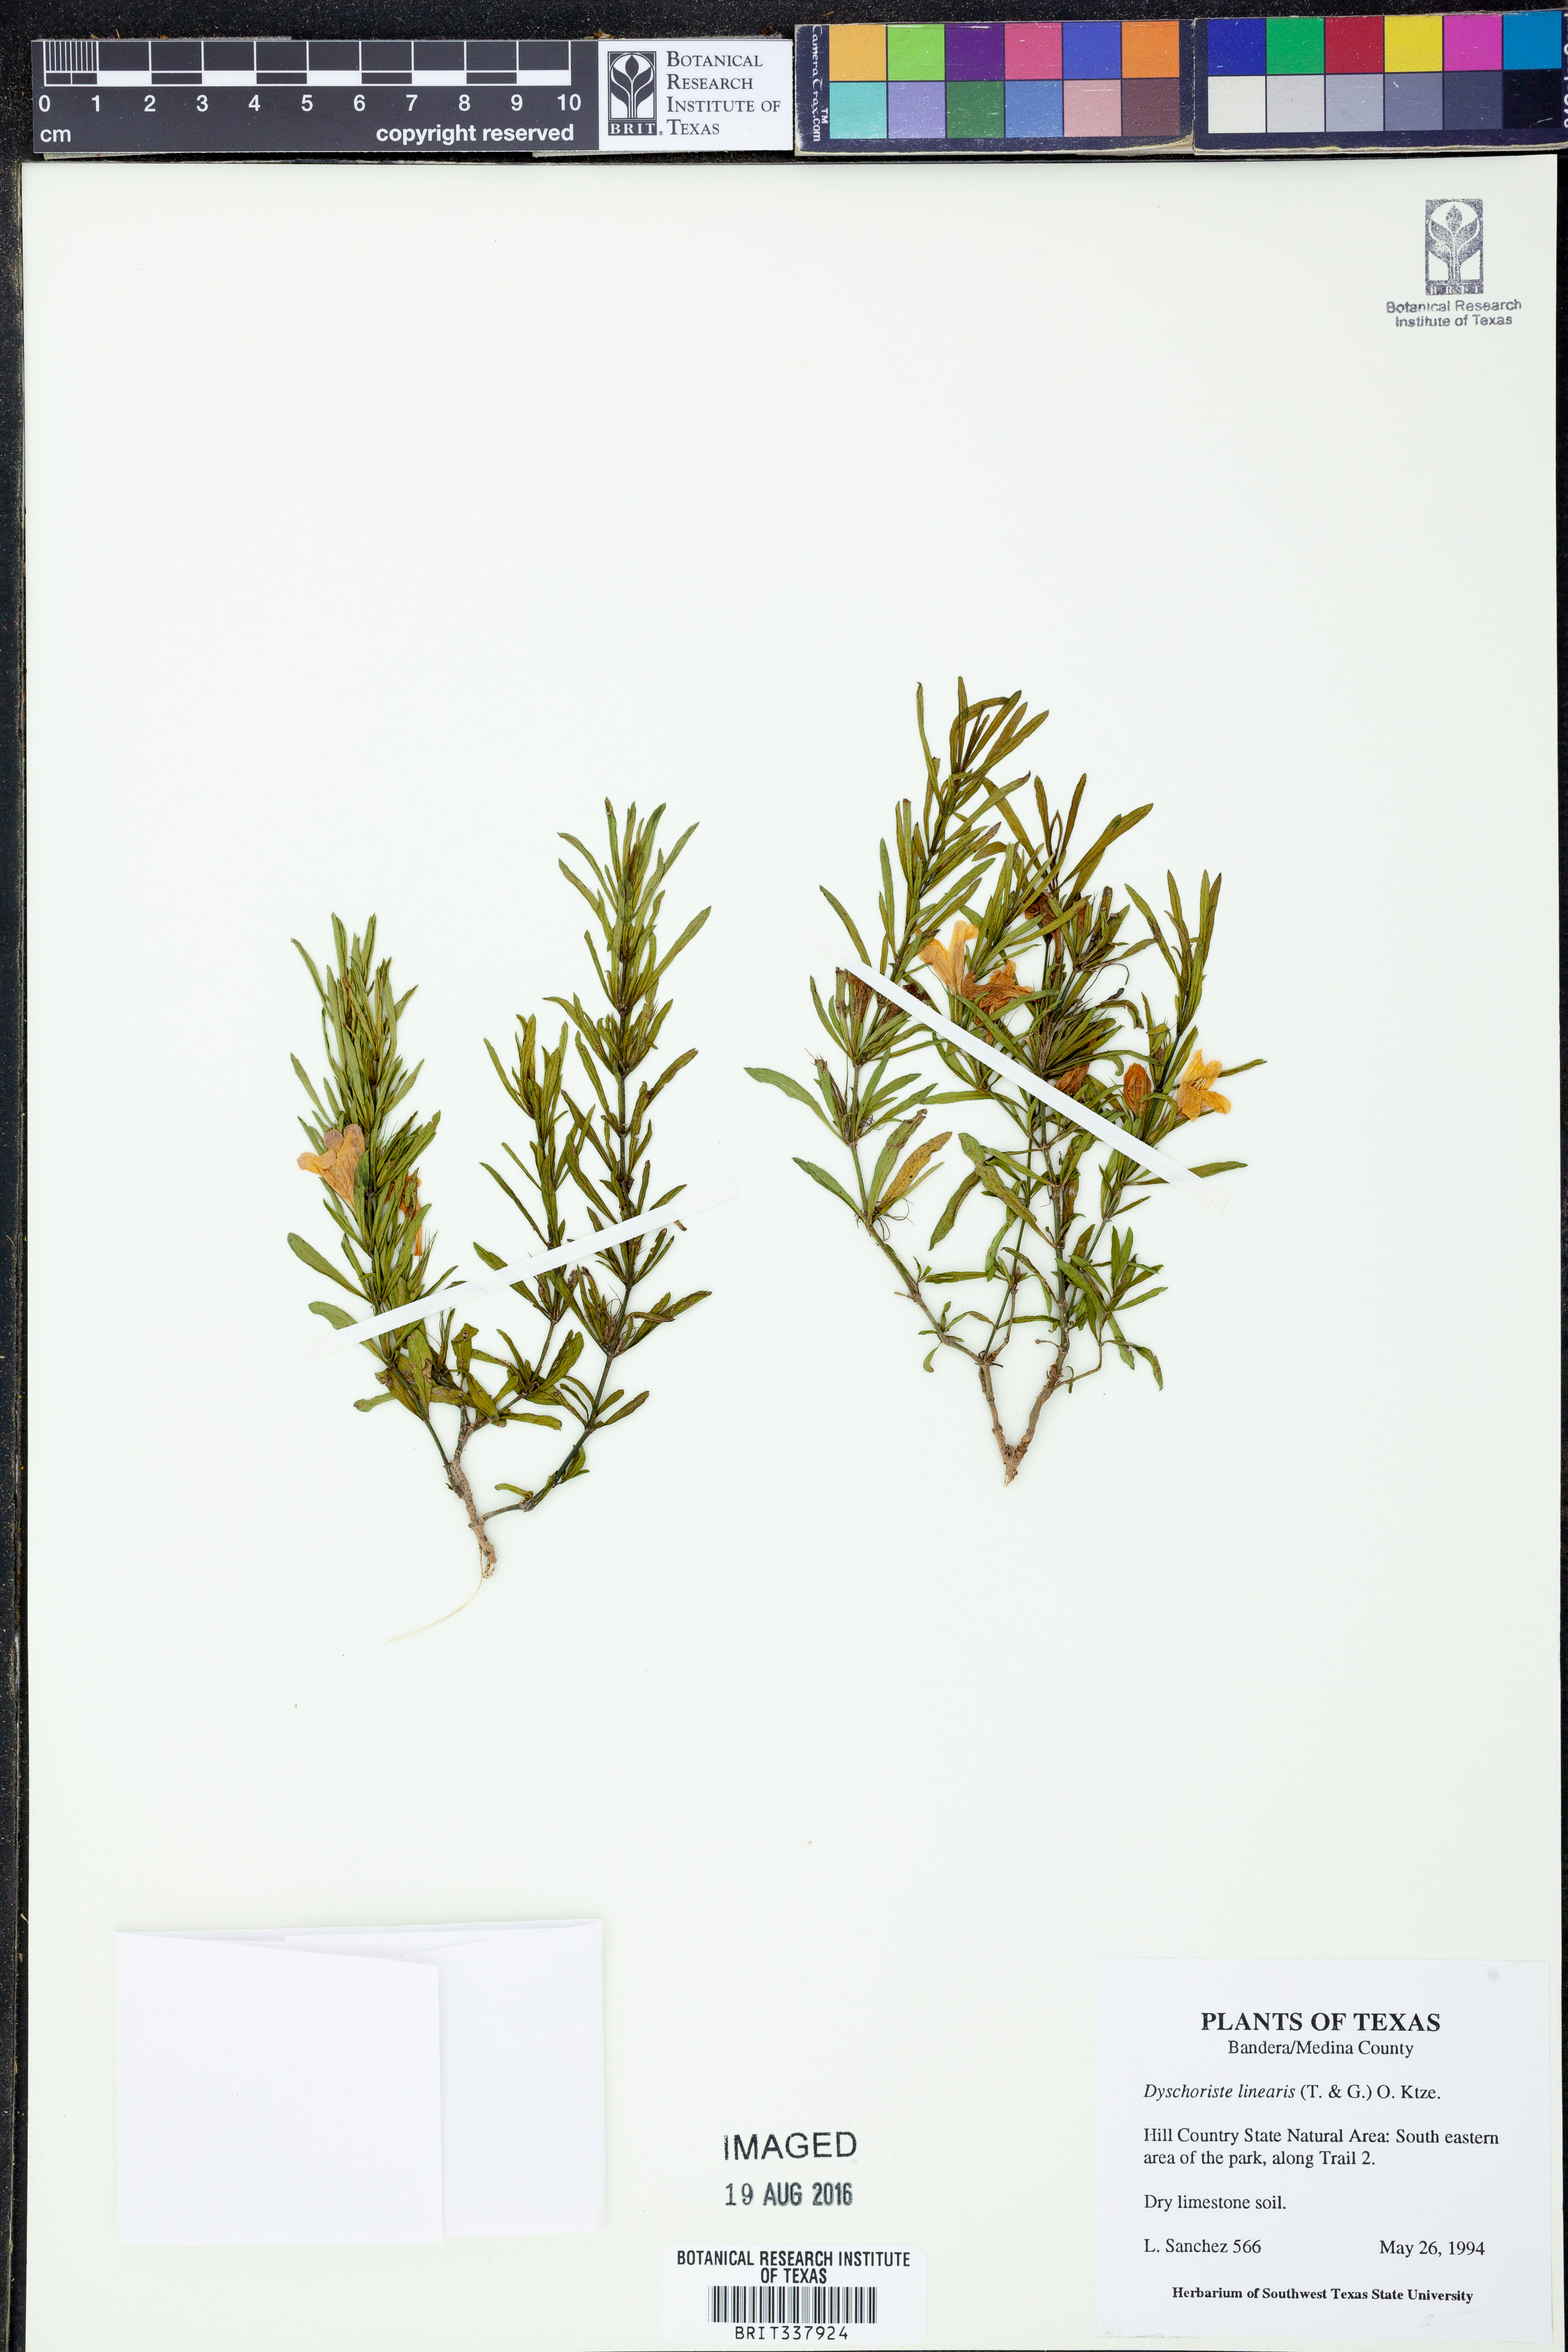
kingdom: Plantae
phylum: Tracheophyta
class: Magnoliopsida
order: Lamiales
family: Acanthaceae
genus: Dyschoriste
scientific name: Dyschoriste linearis
